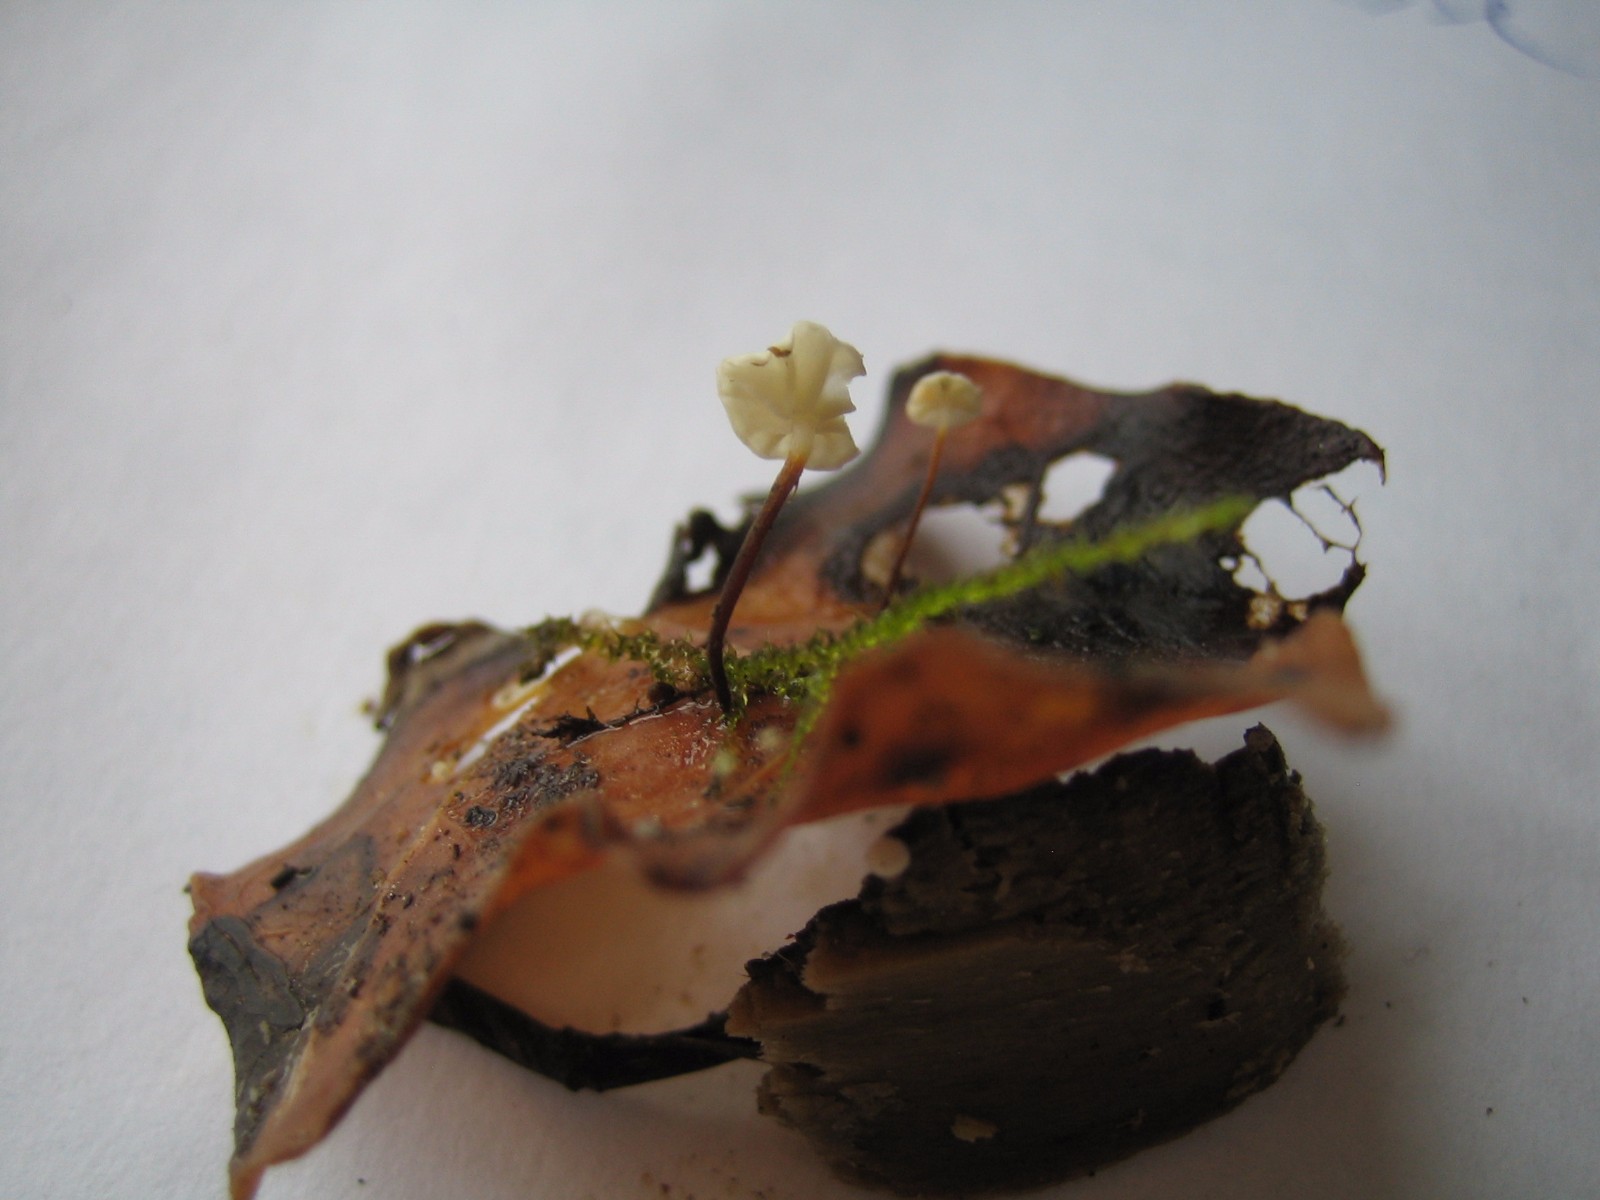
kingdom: Fungi
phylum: Basidiomycota
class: Agaricomycetes
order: Agaricales
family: Marasmiaceae
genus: Marasmius
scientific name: Marasmius epiphylloides
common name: vedbend-bruskhat
